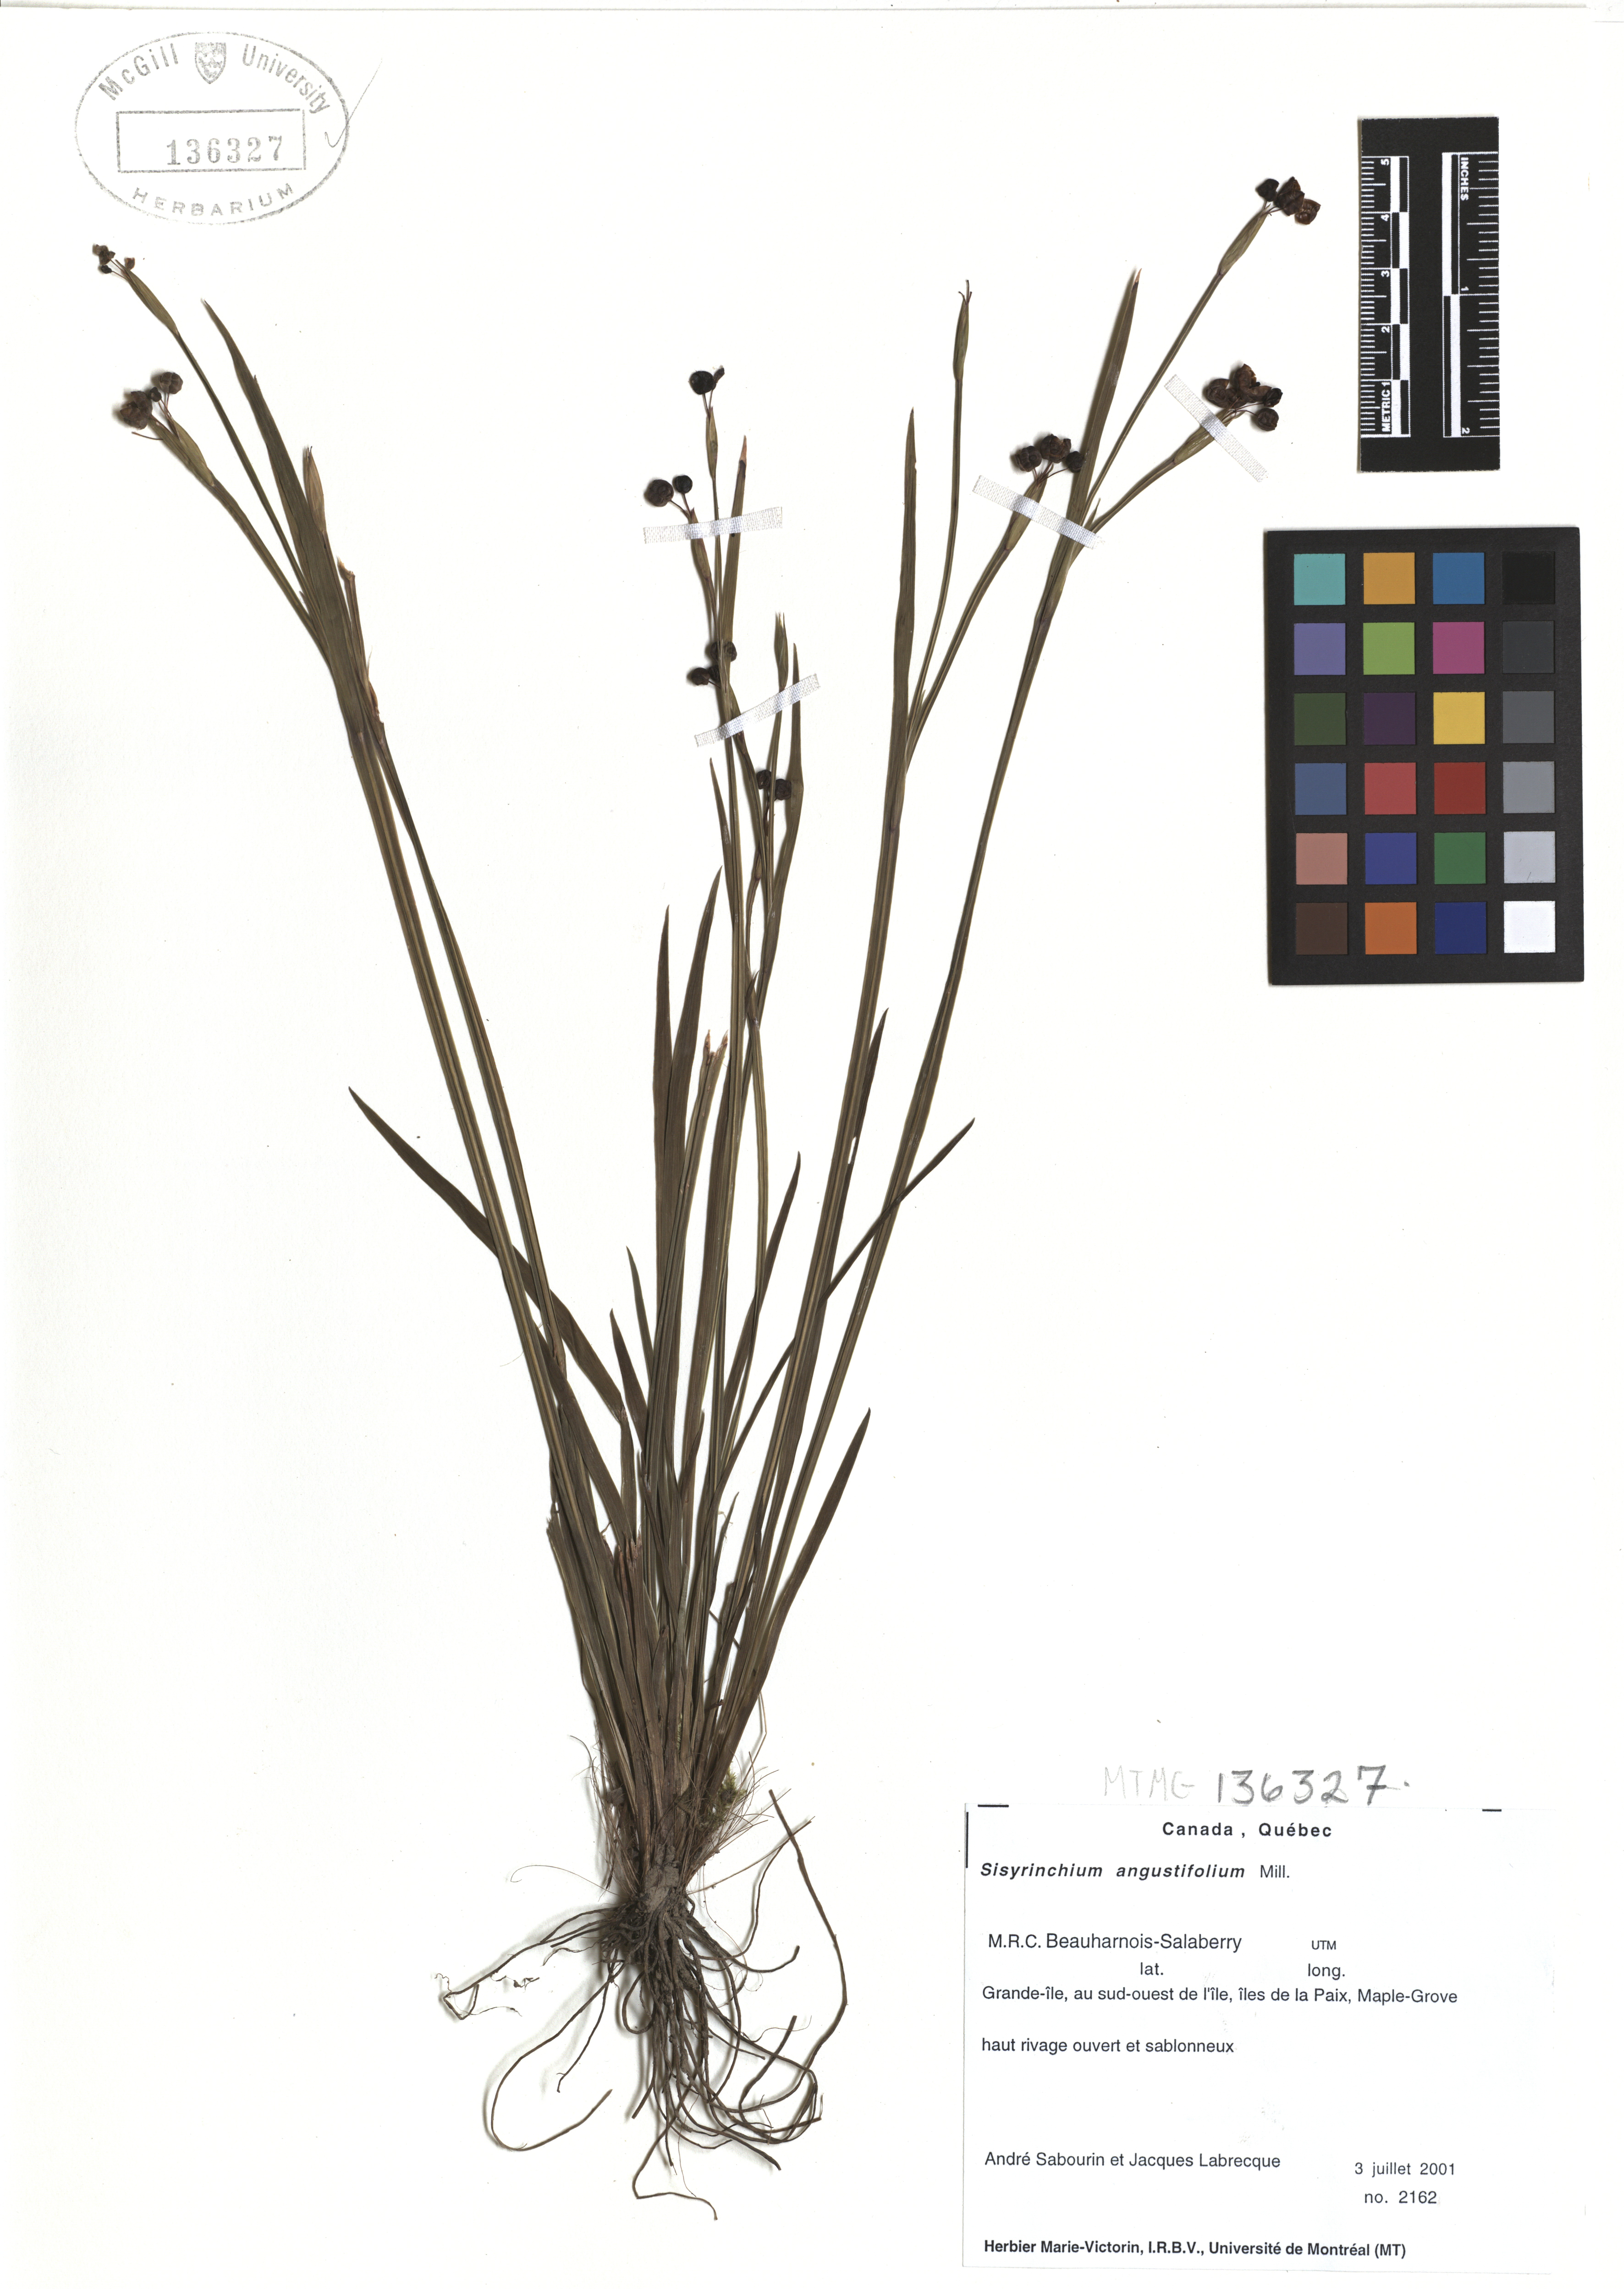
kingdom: Plantae
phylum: Tracheophyta
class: Liliopsida
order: Asparagales
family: Iridaceae
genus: Sisyrinchium
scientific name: Sisyrinchium angustifolium
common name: Narrow-leaf blue-eyed-grass
